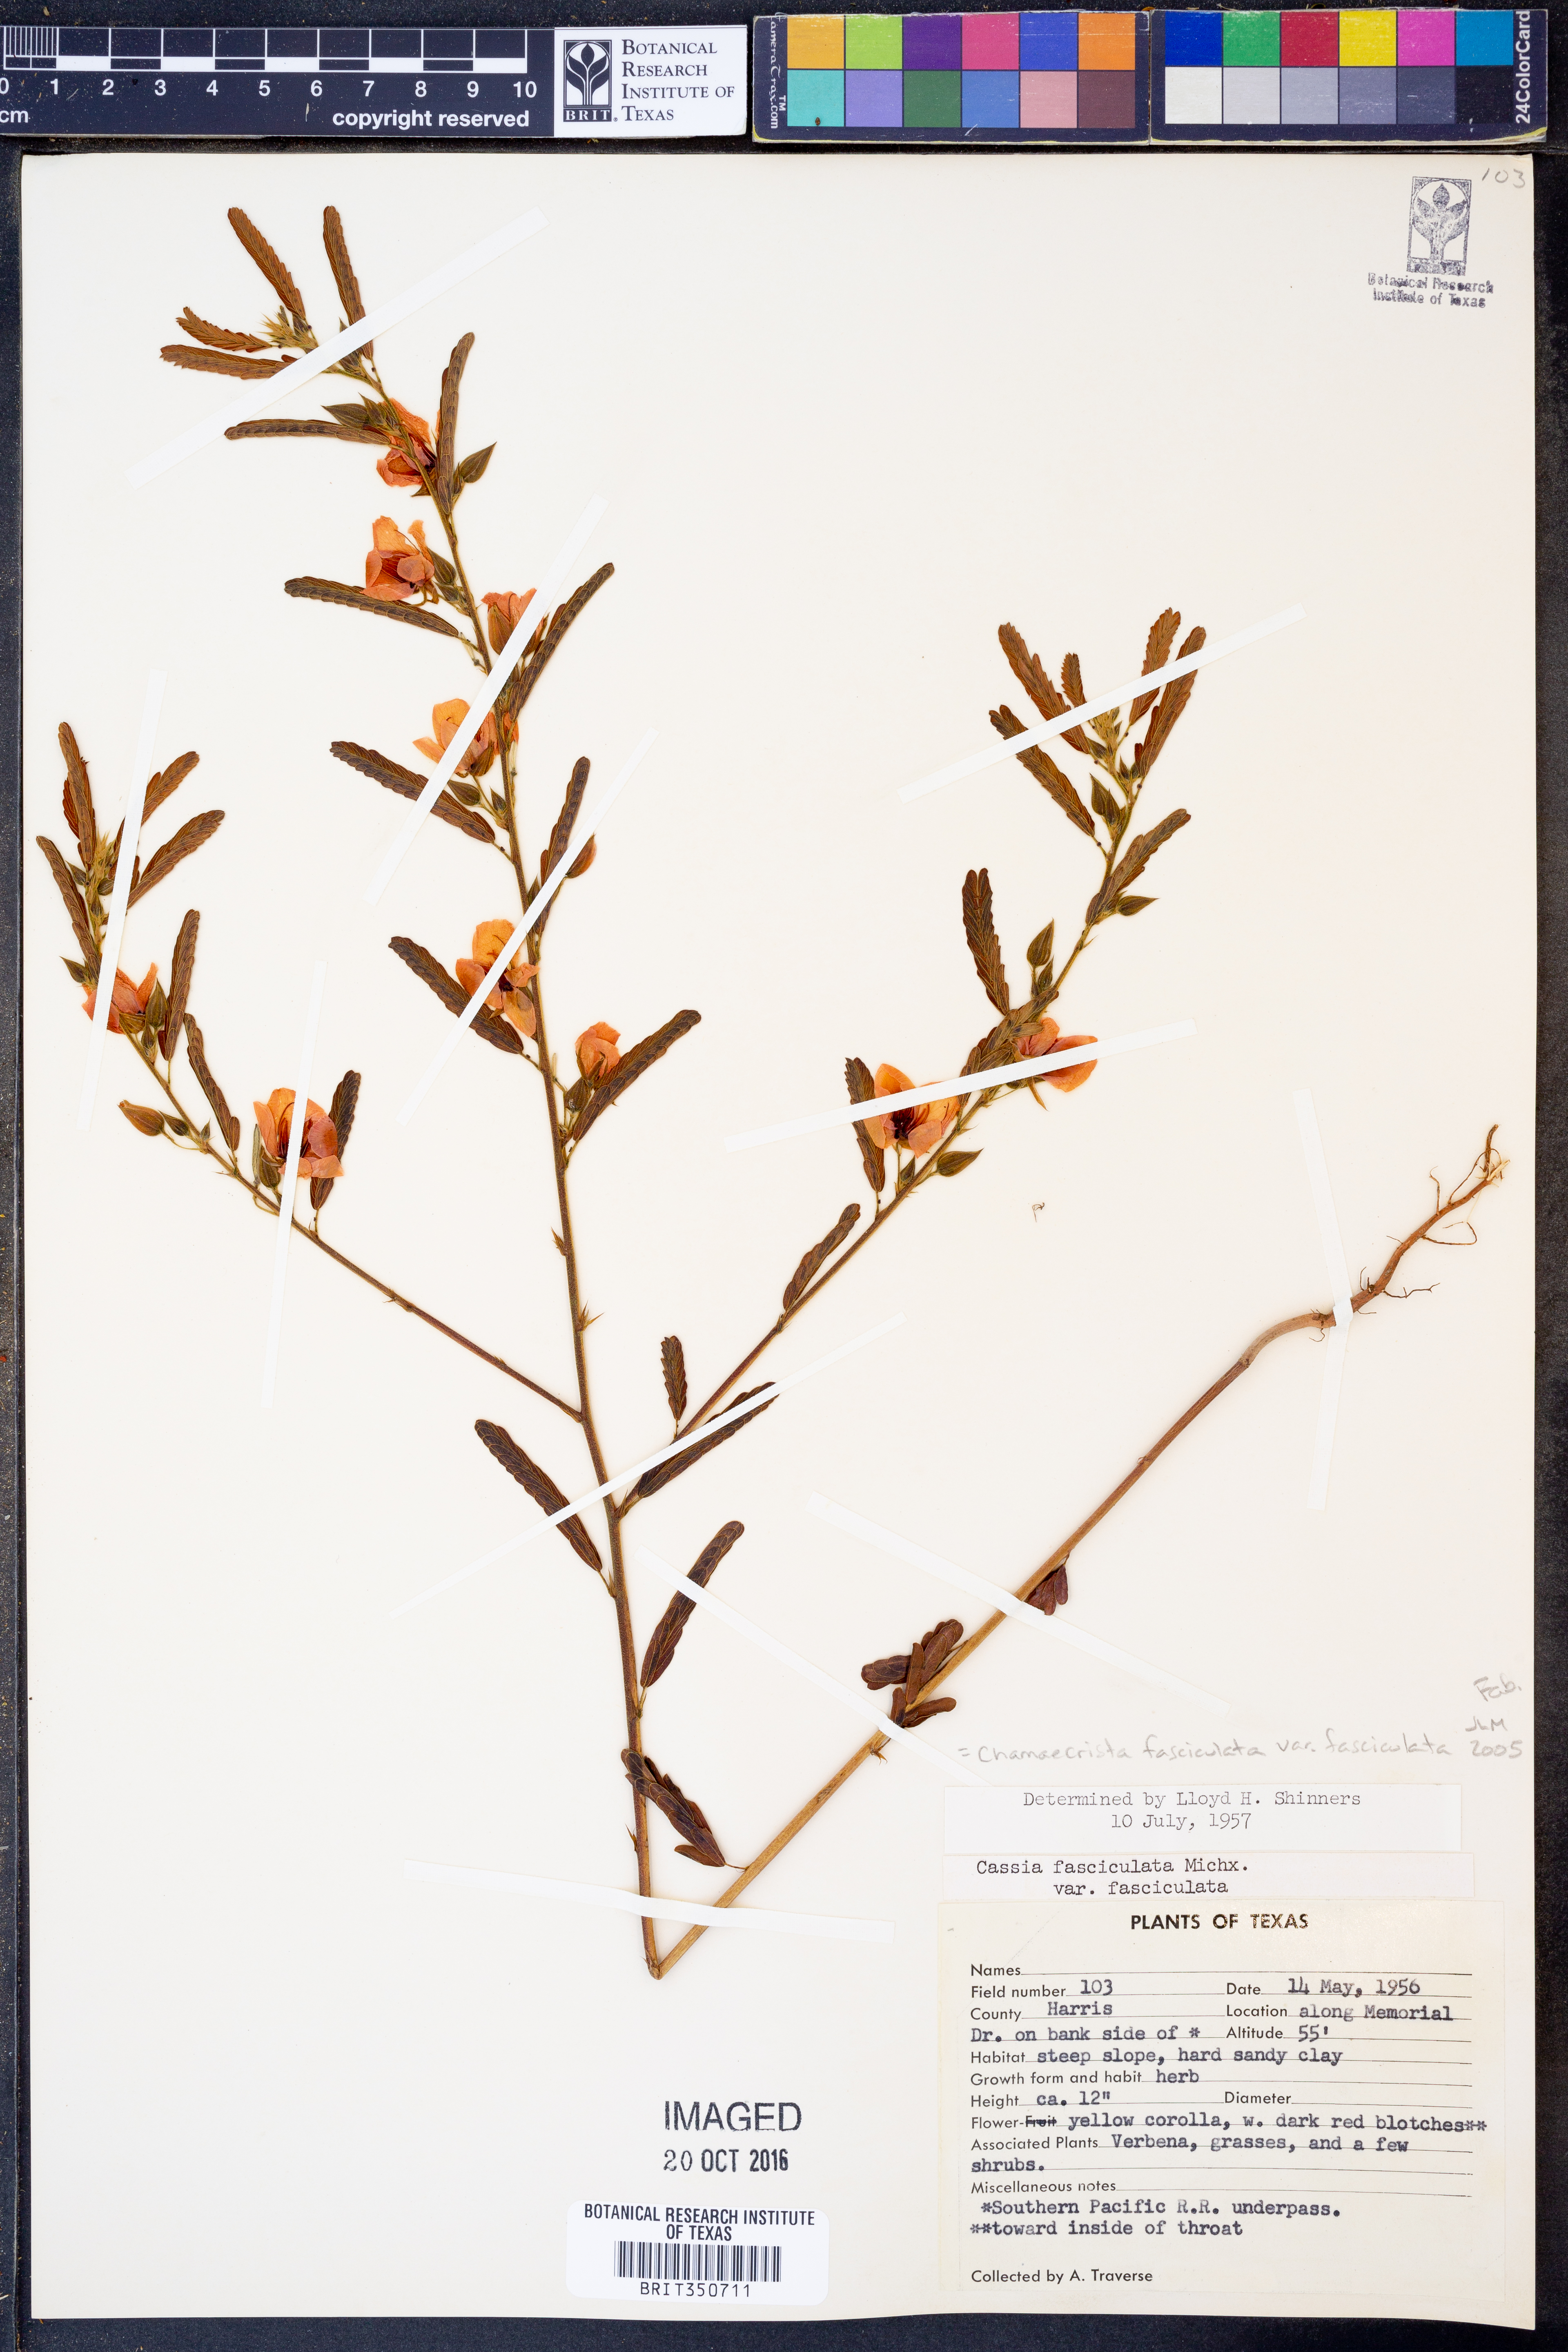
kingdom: Plantae
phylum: Tracheophyta
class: Magnoliopsida
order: Fabales
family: Fabaceae
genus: Chamaecrista
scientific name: Chamaecrista fasciculata
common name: Golden cassia
